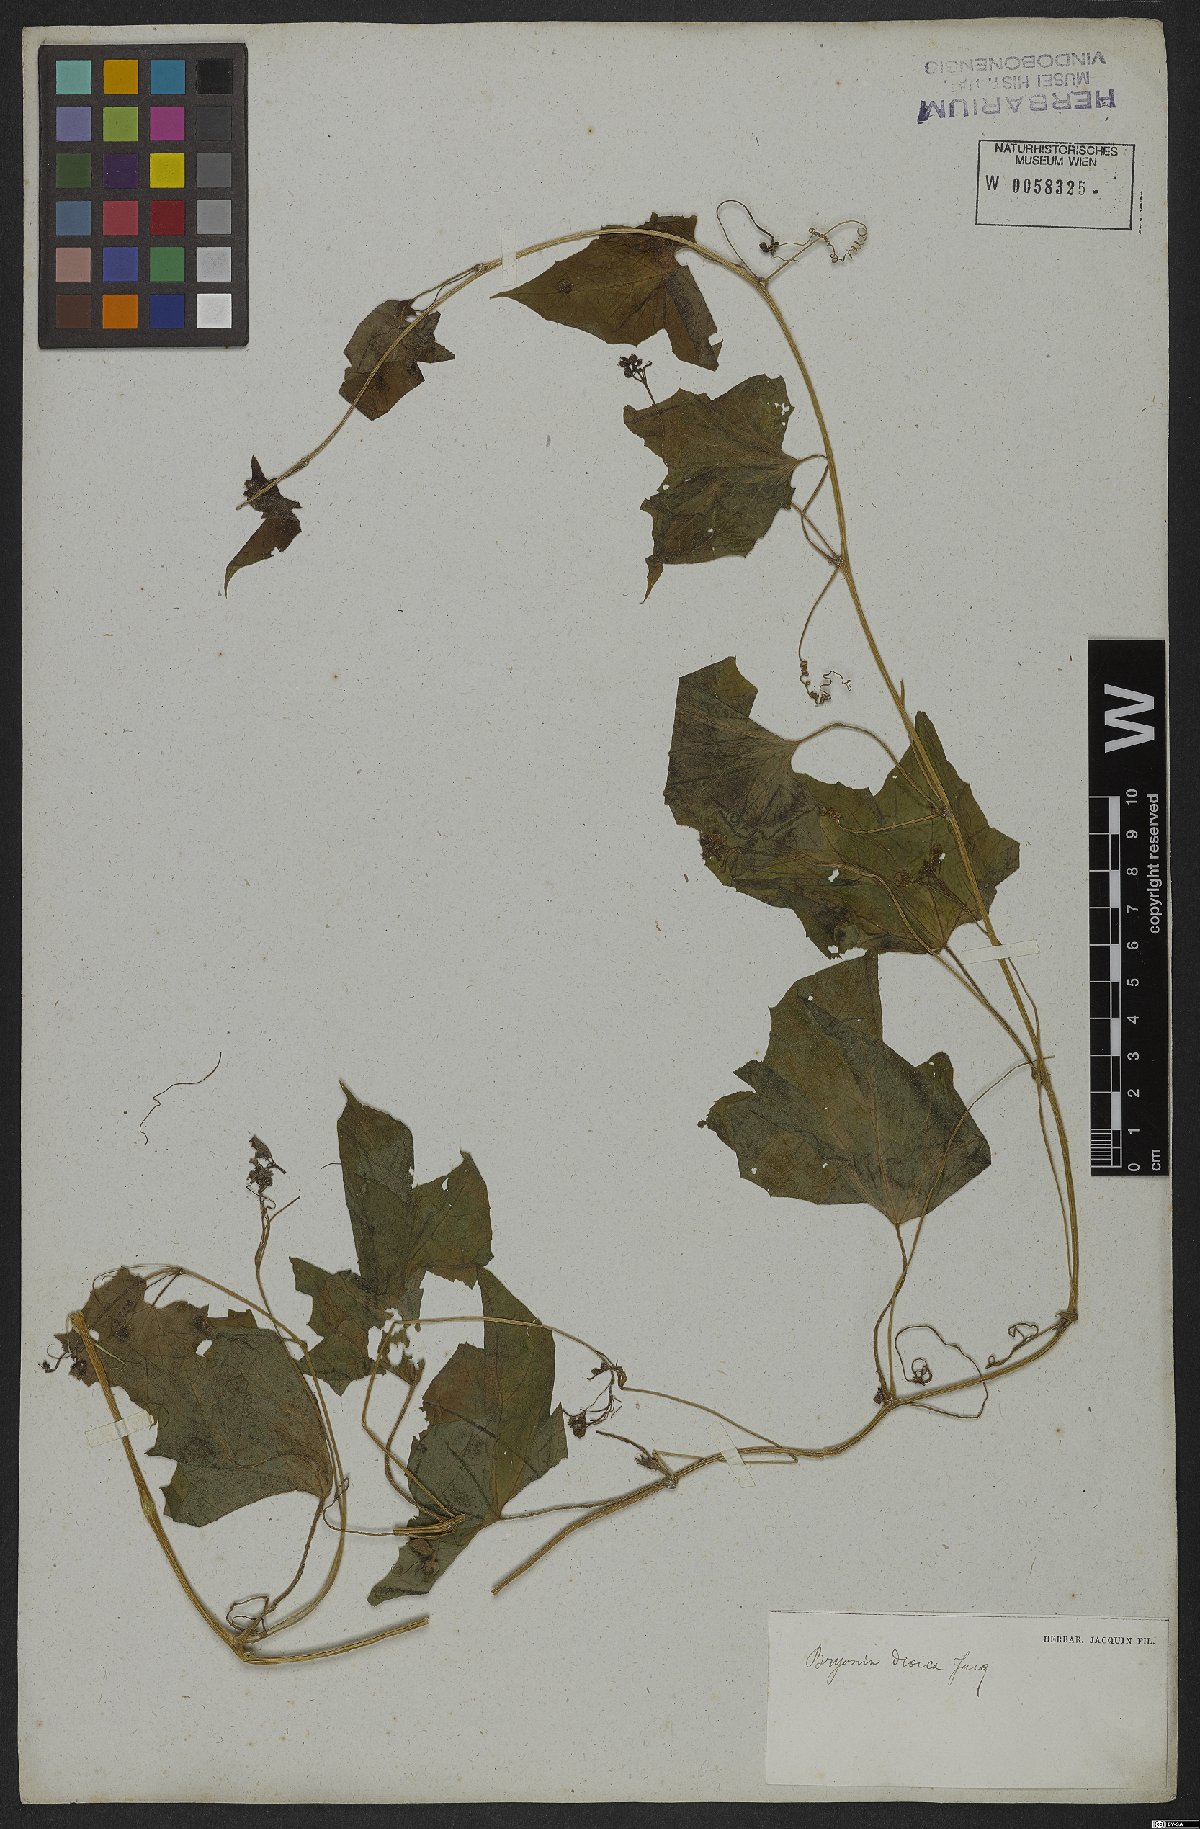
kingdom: Plantae
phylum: Tracheophyta
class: Magnoliopsida
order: Cucurbitales
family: Cucurbitaceae
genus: Bryonia
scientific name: Bryonia dioica
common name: White bryony
